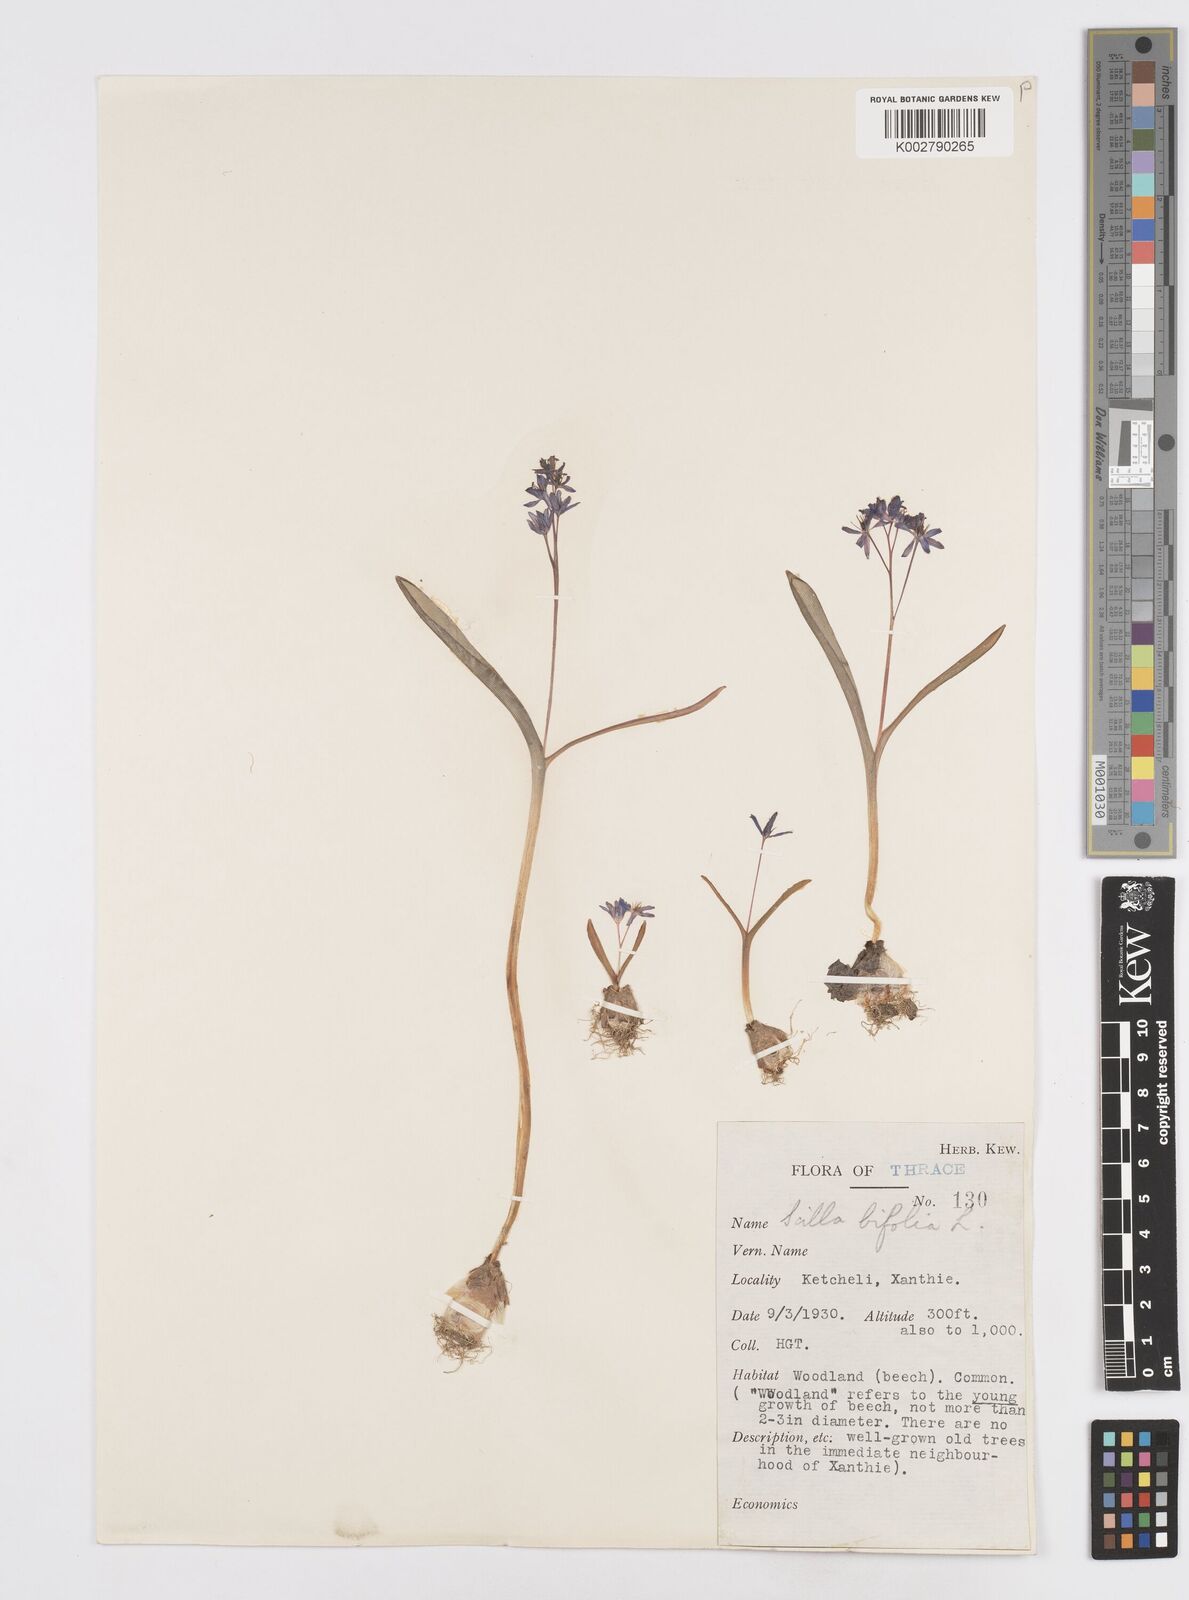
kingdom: Plantae
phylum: Tracheophyta
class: Liliopsida
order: Asparagales
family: Asparagaceae
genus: Scilla
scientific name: Scilla bifolia
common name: Alpine squill
